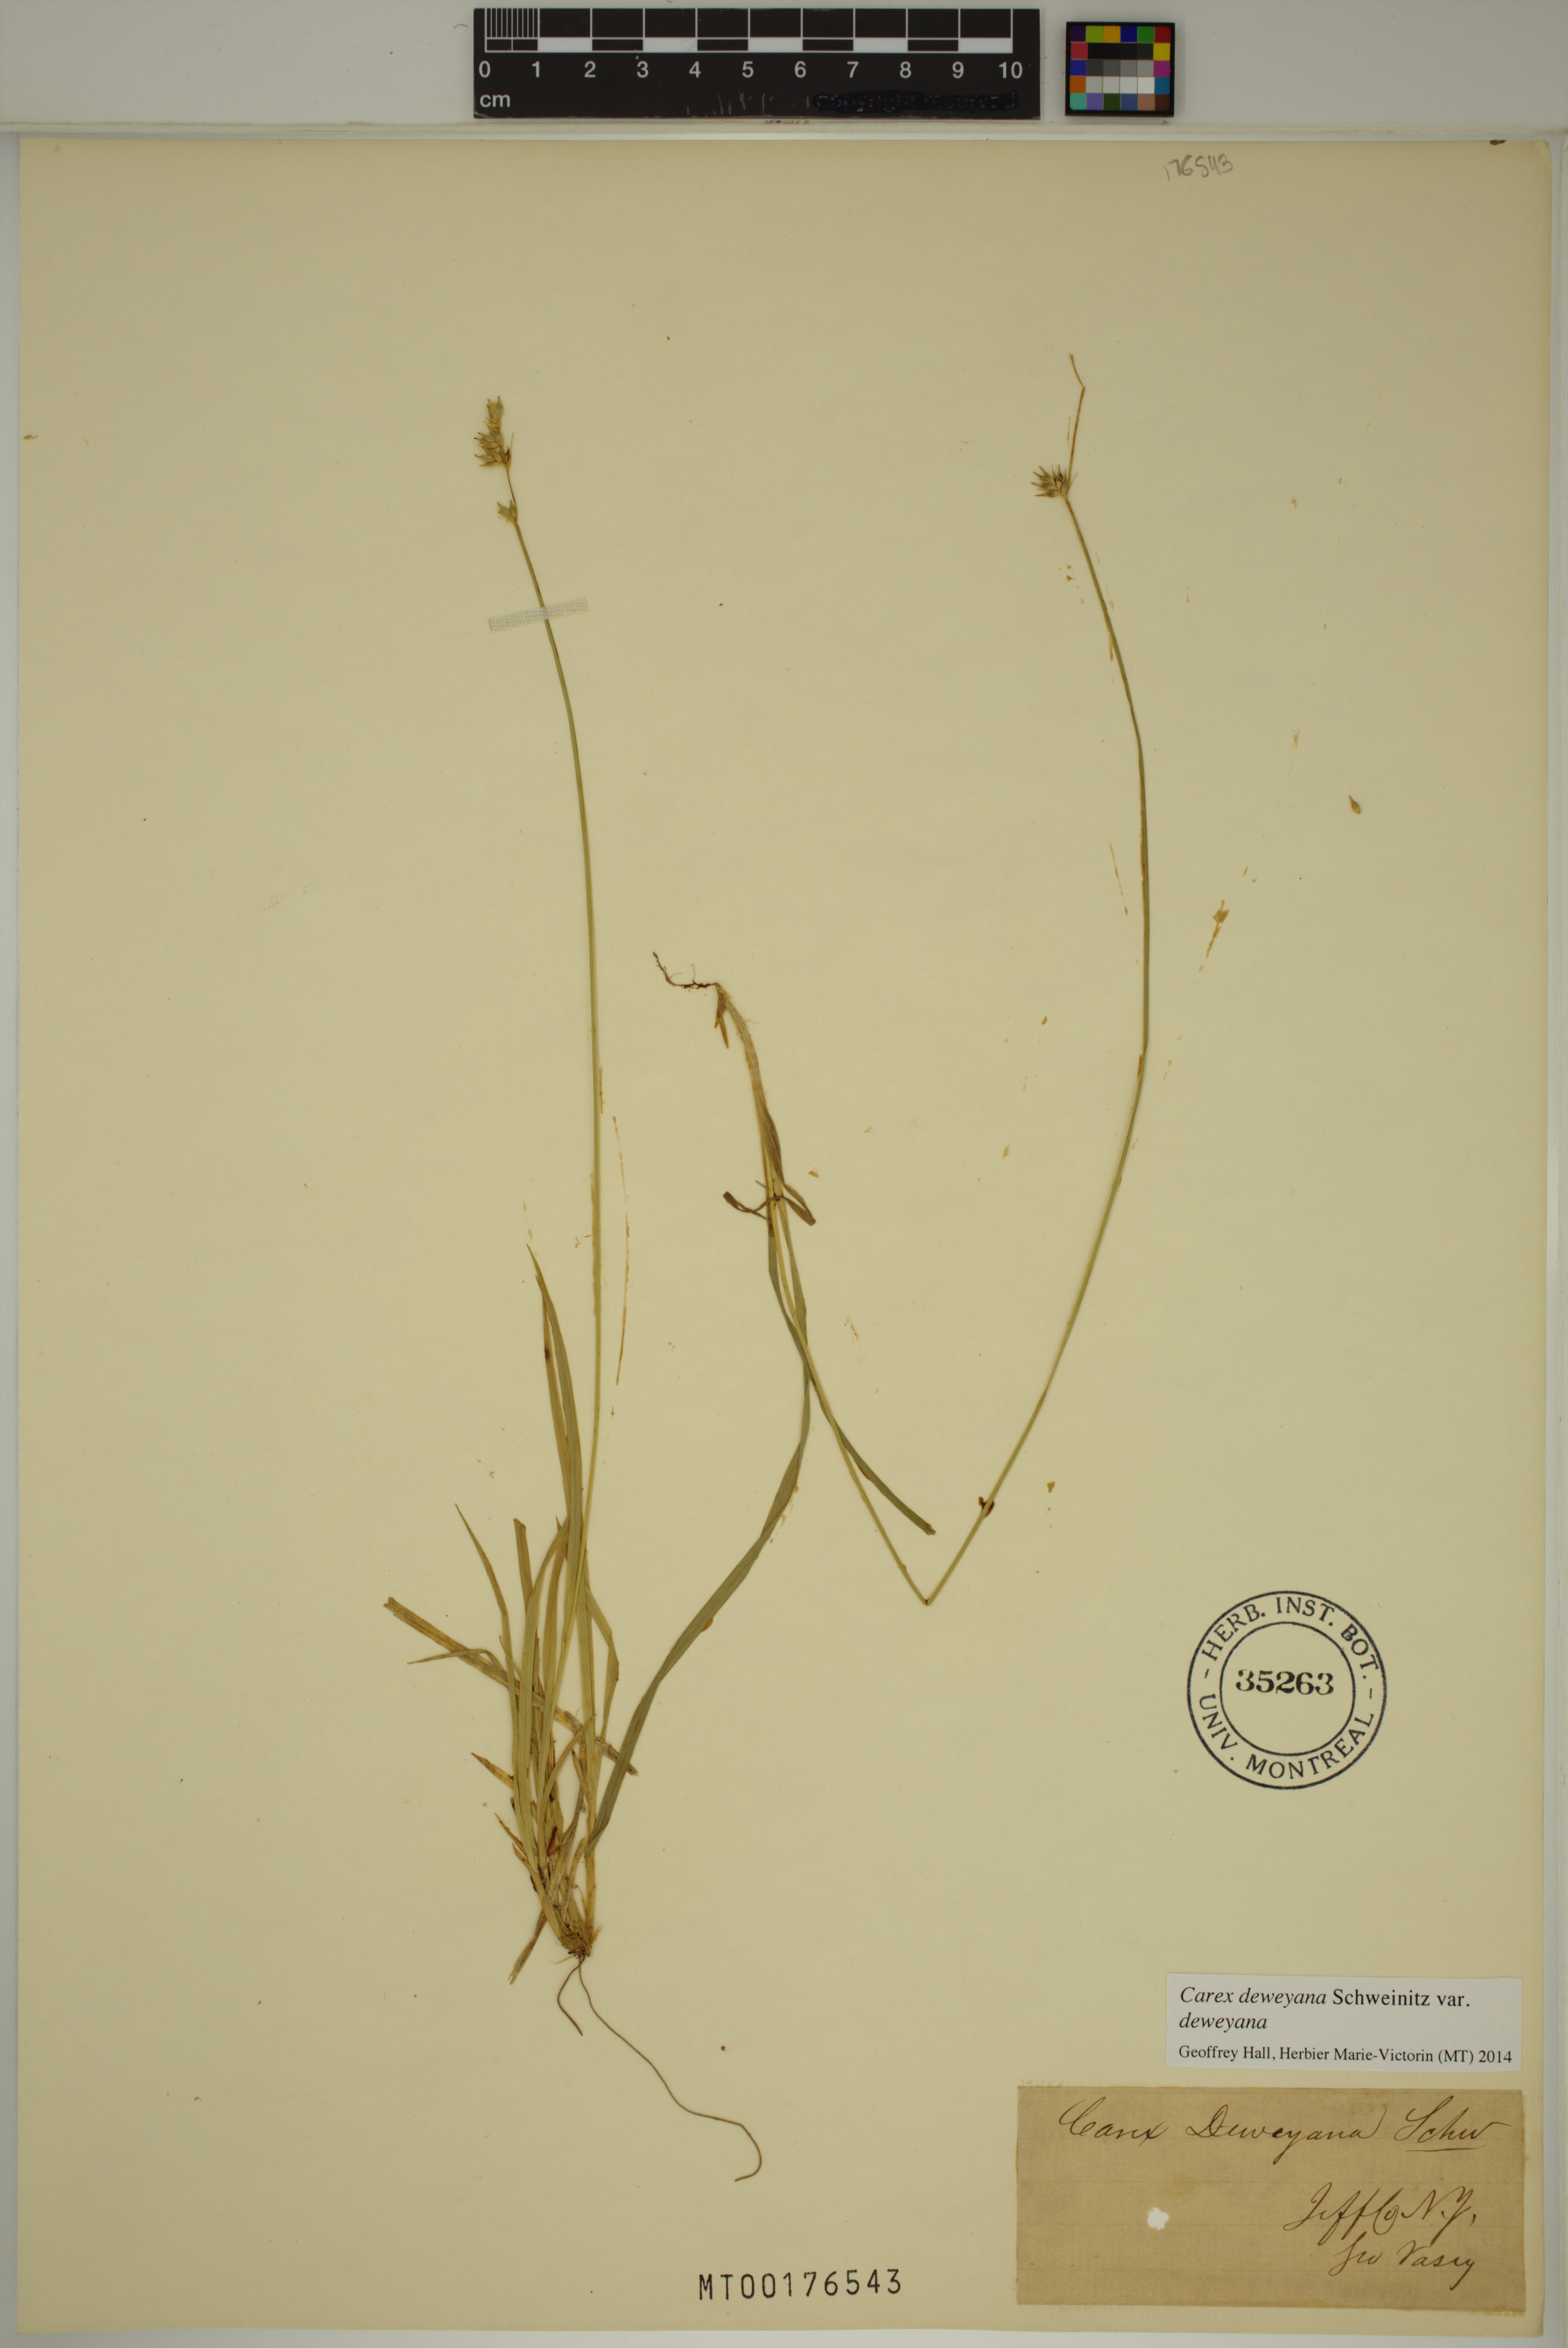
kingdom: Plantae
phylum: Tracheophyta
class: Liliopsida
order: Poales
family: Cyperaceae
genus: Carex
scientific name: Carex deweyana
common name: Dewey's sedge
